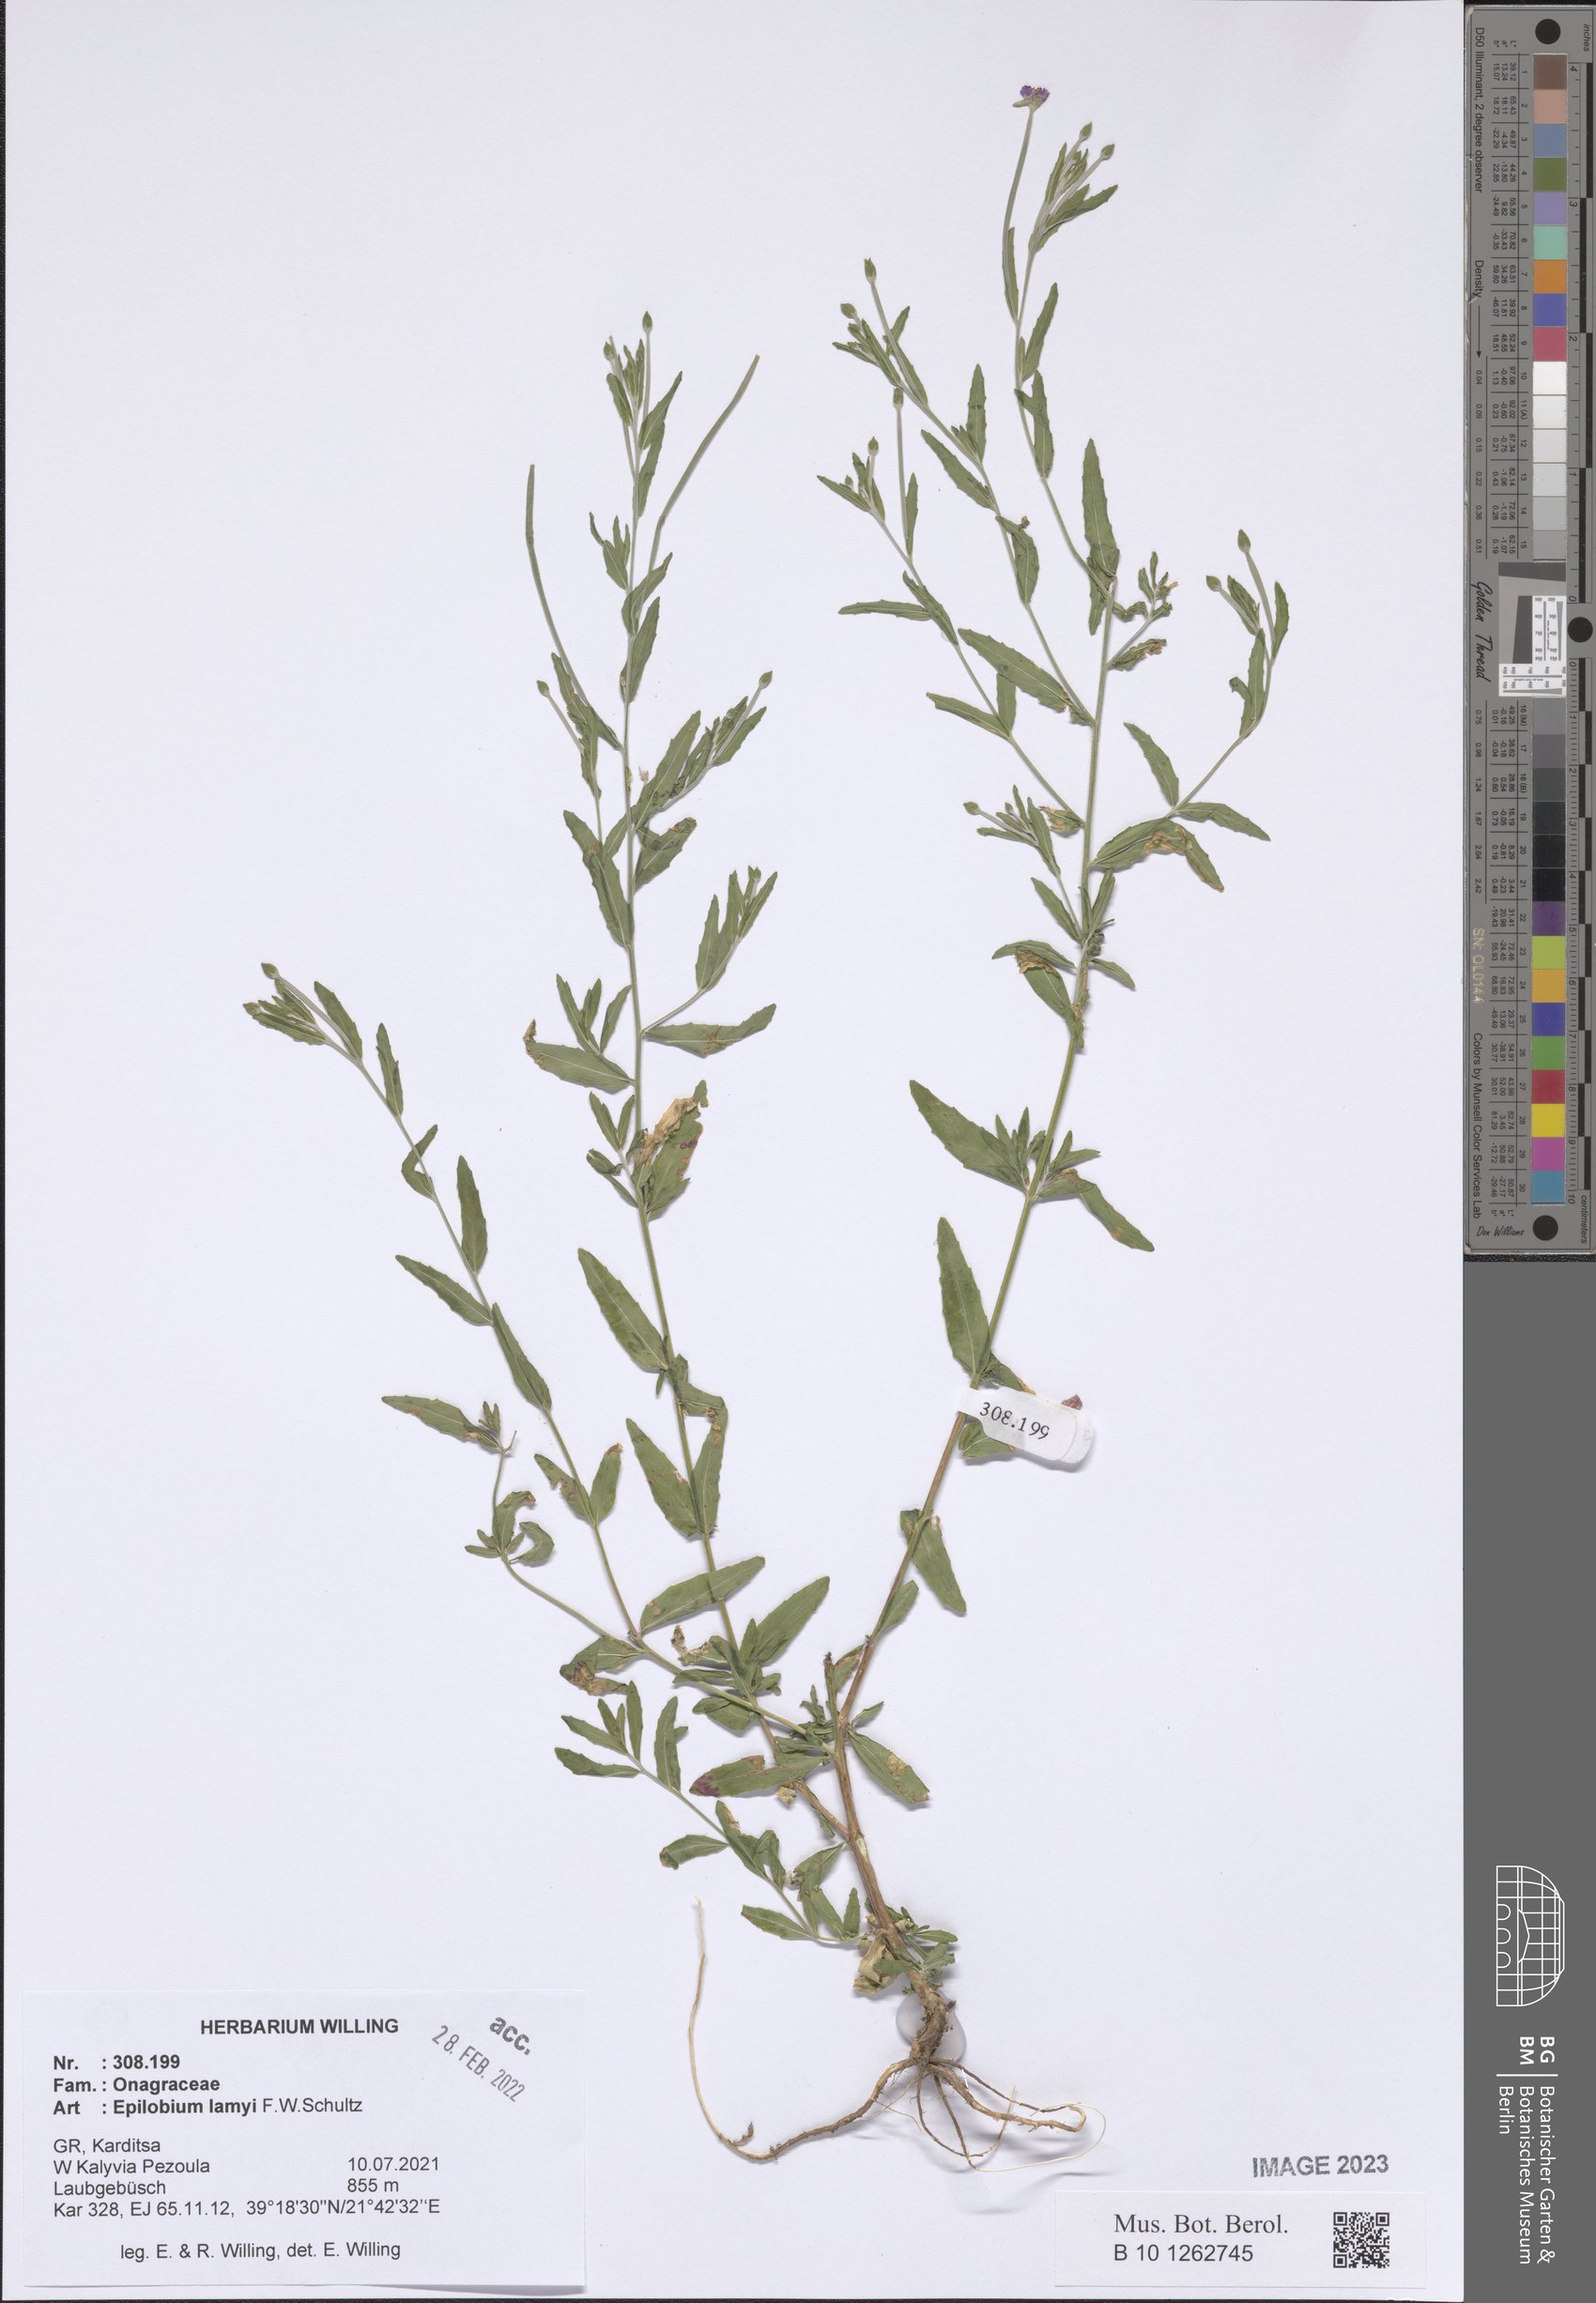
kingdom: Plantae
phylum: Tracheophyta
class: Magnoliopsida
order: Myrtales
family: Onagraceae
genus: Epilobium
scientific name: Epilobium lamyi
